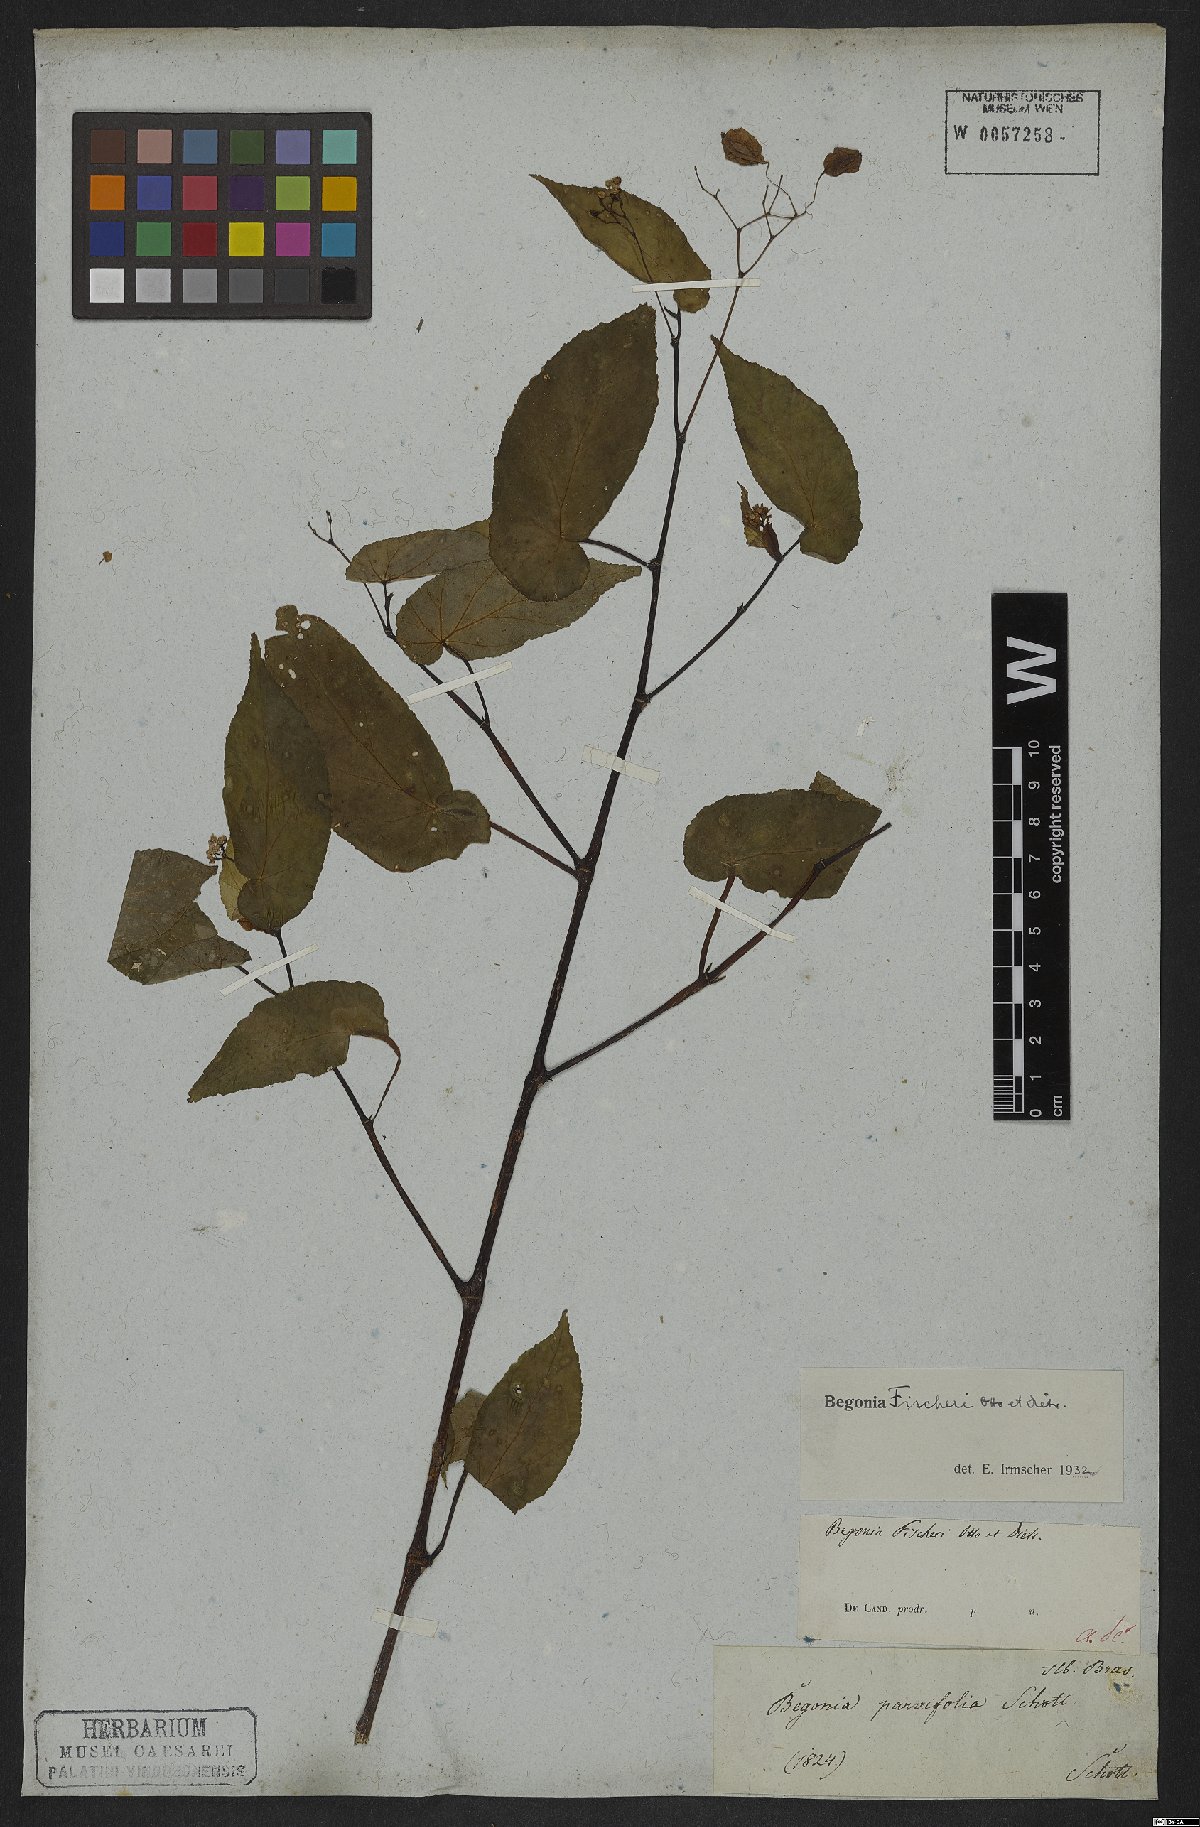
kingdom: Plantae
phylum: Tracheophyta
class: Magnoliopsida
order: Cucurbitales
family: Begoniaceae
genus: Begonia
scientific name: Begonia fischeri
